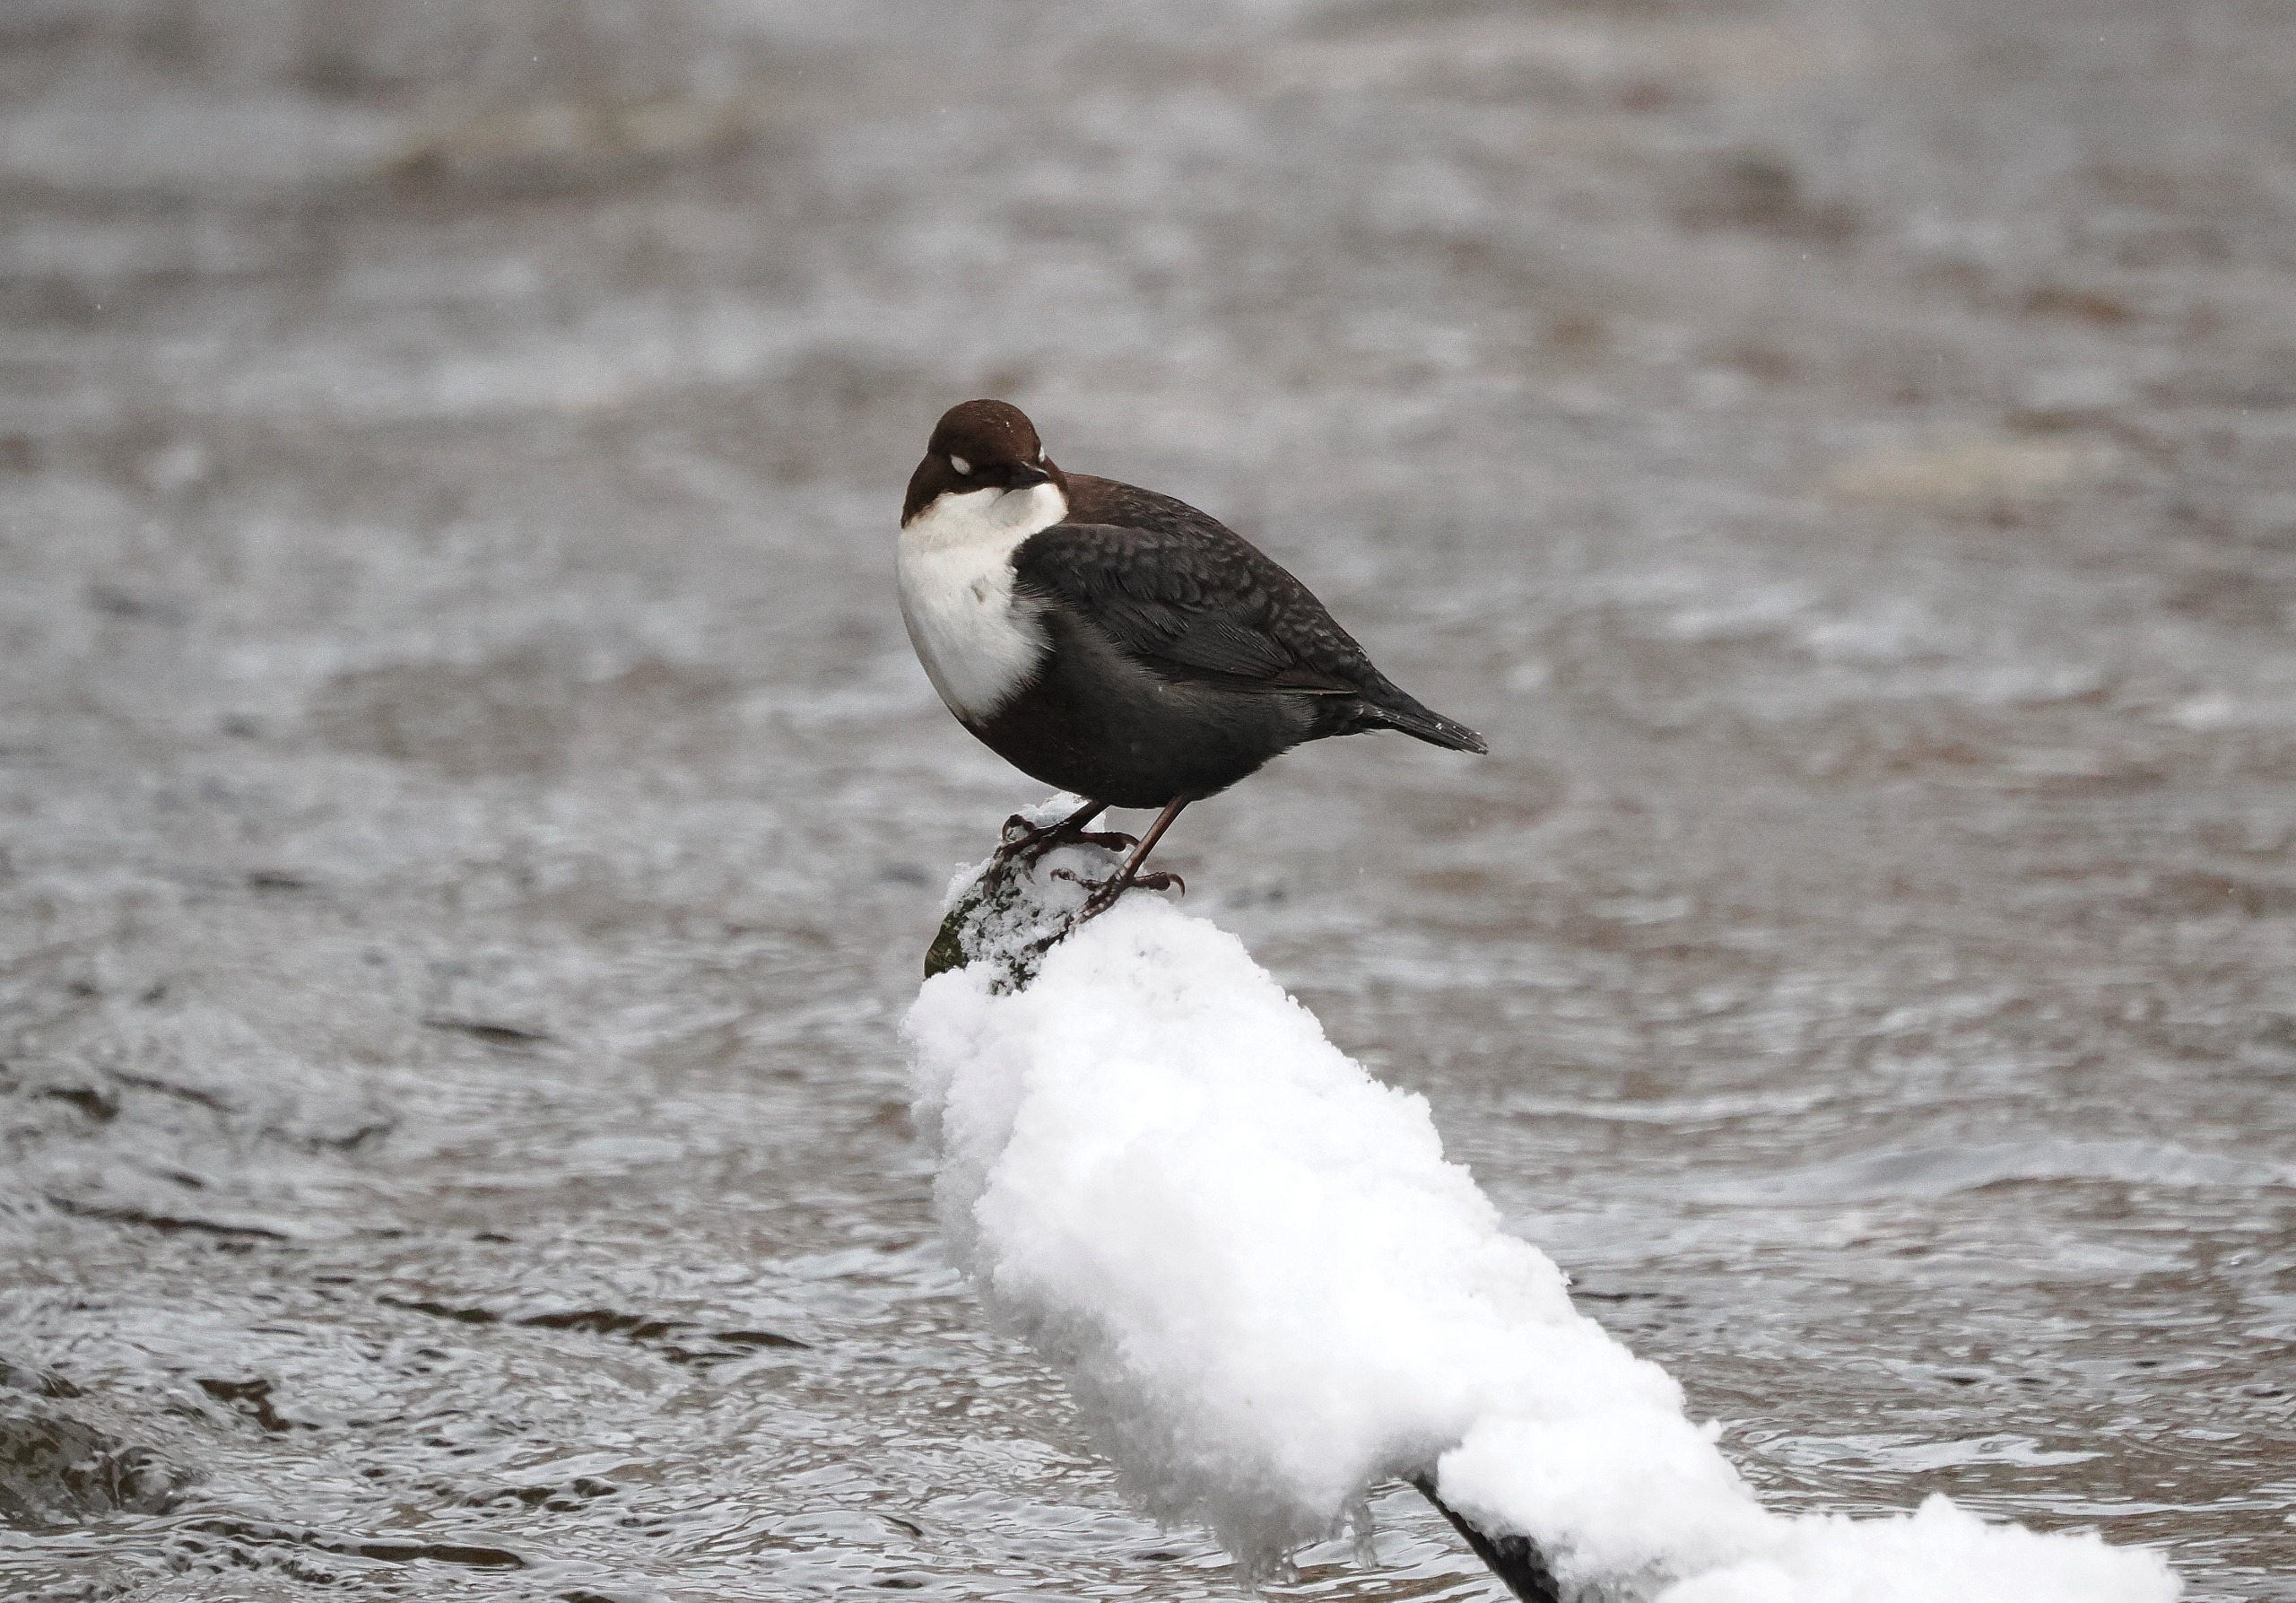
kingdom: Animalia
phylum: Chordata
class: Aves
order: Passeriformes
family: Cinclidae
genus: Cinclus
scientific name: Cinclus cinclus
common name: Vandstær
